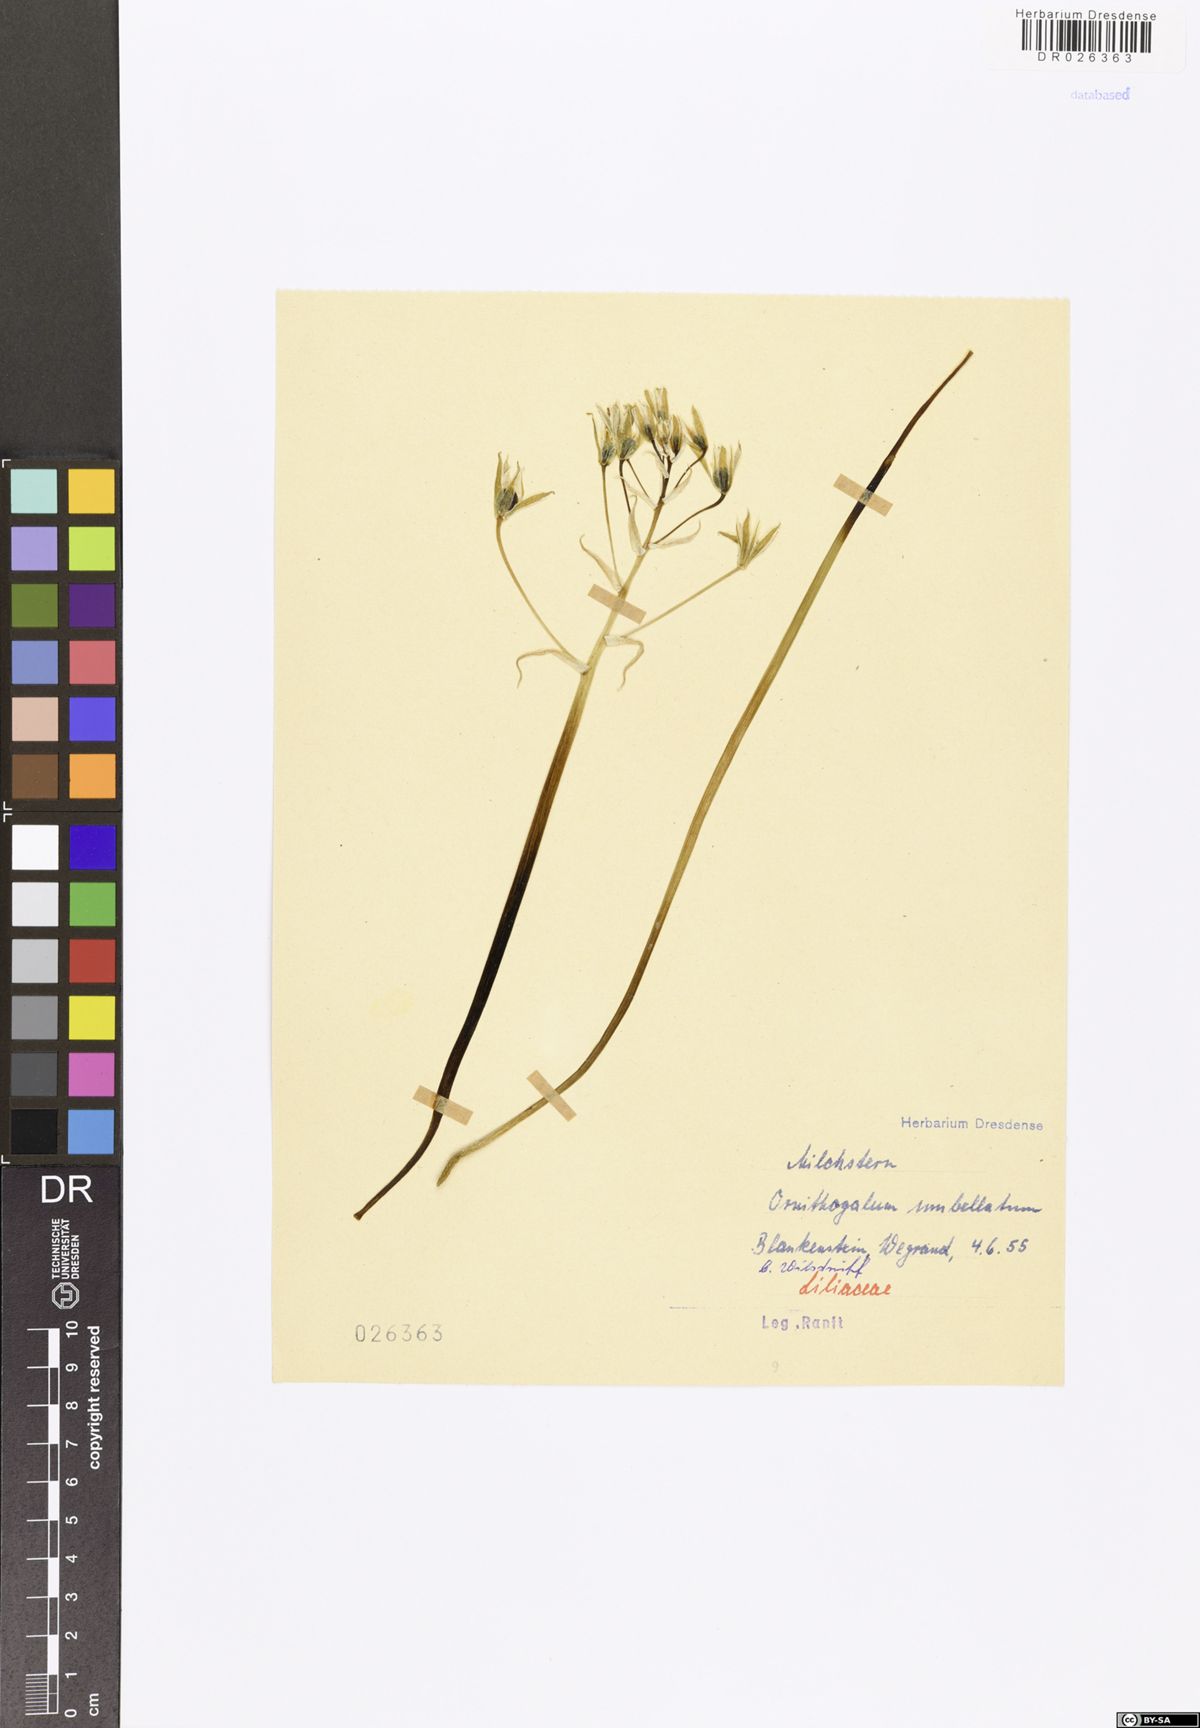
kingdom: Plantae
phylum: Tracheophyta
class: Liliopsida
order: Asparagales
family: Asparagaceae
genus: Ornithogalum
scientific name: Ornithogalum umbellatum
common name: Garden star-of-bethlehem
